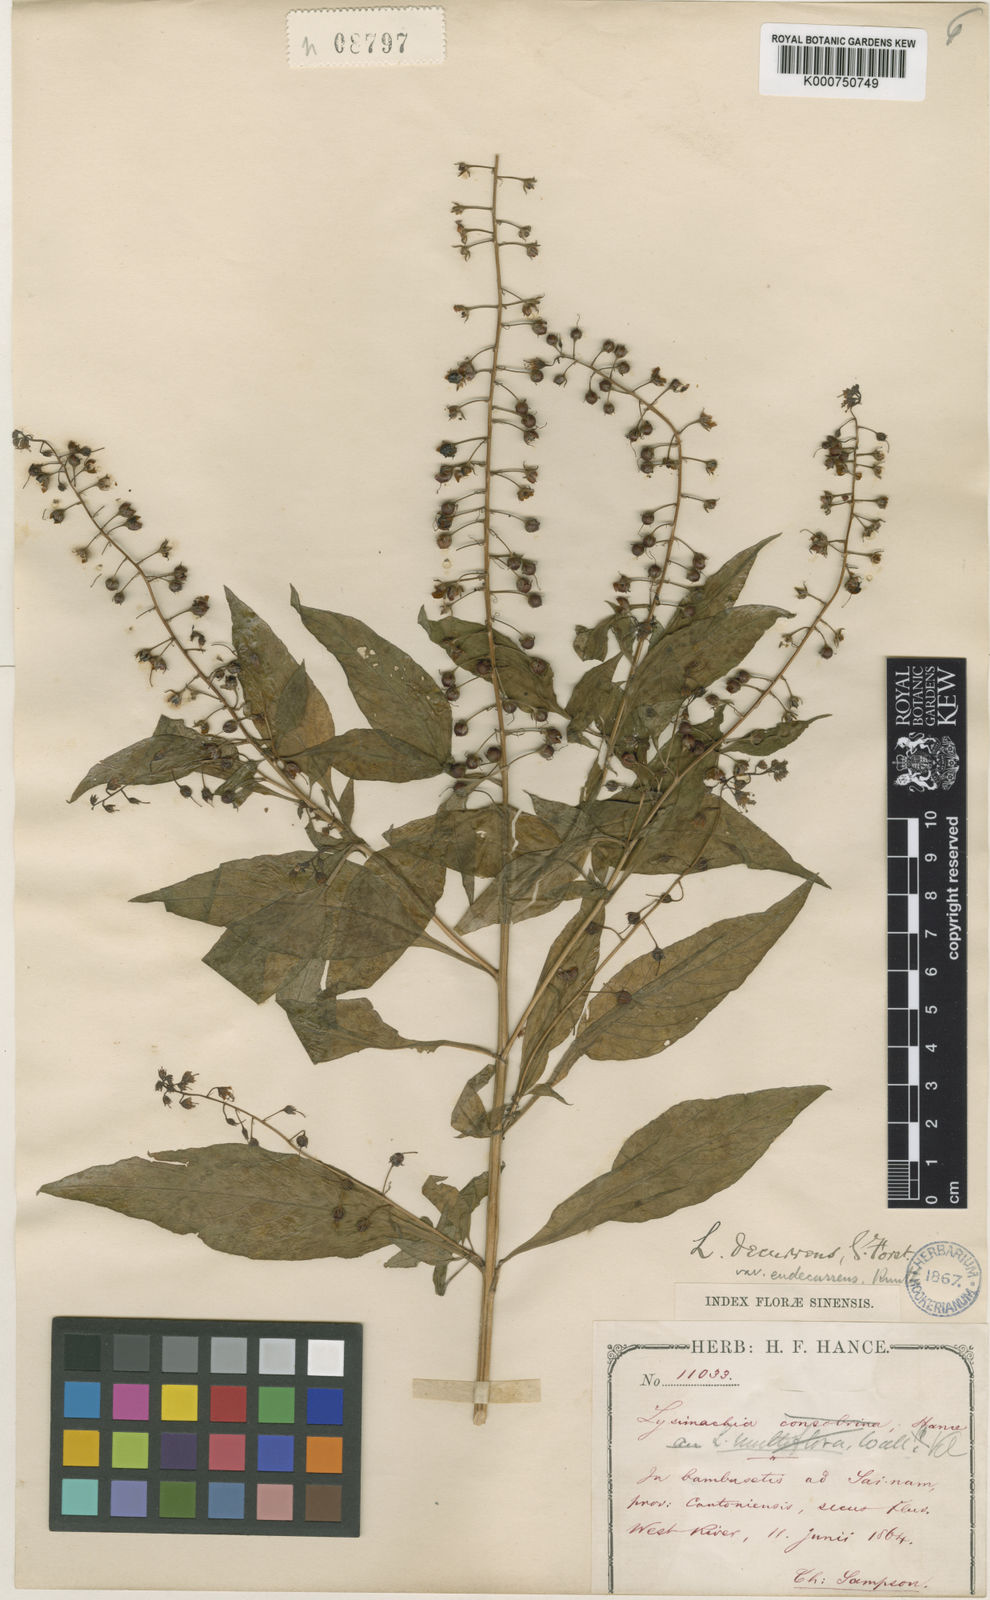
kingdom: Plantae
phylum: Tracheophyta
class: Magnoliopsida
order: Ericales
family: Primulaceae
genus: Lysimachia
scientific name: Lysimachia decurrens
